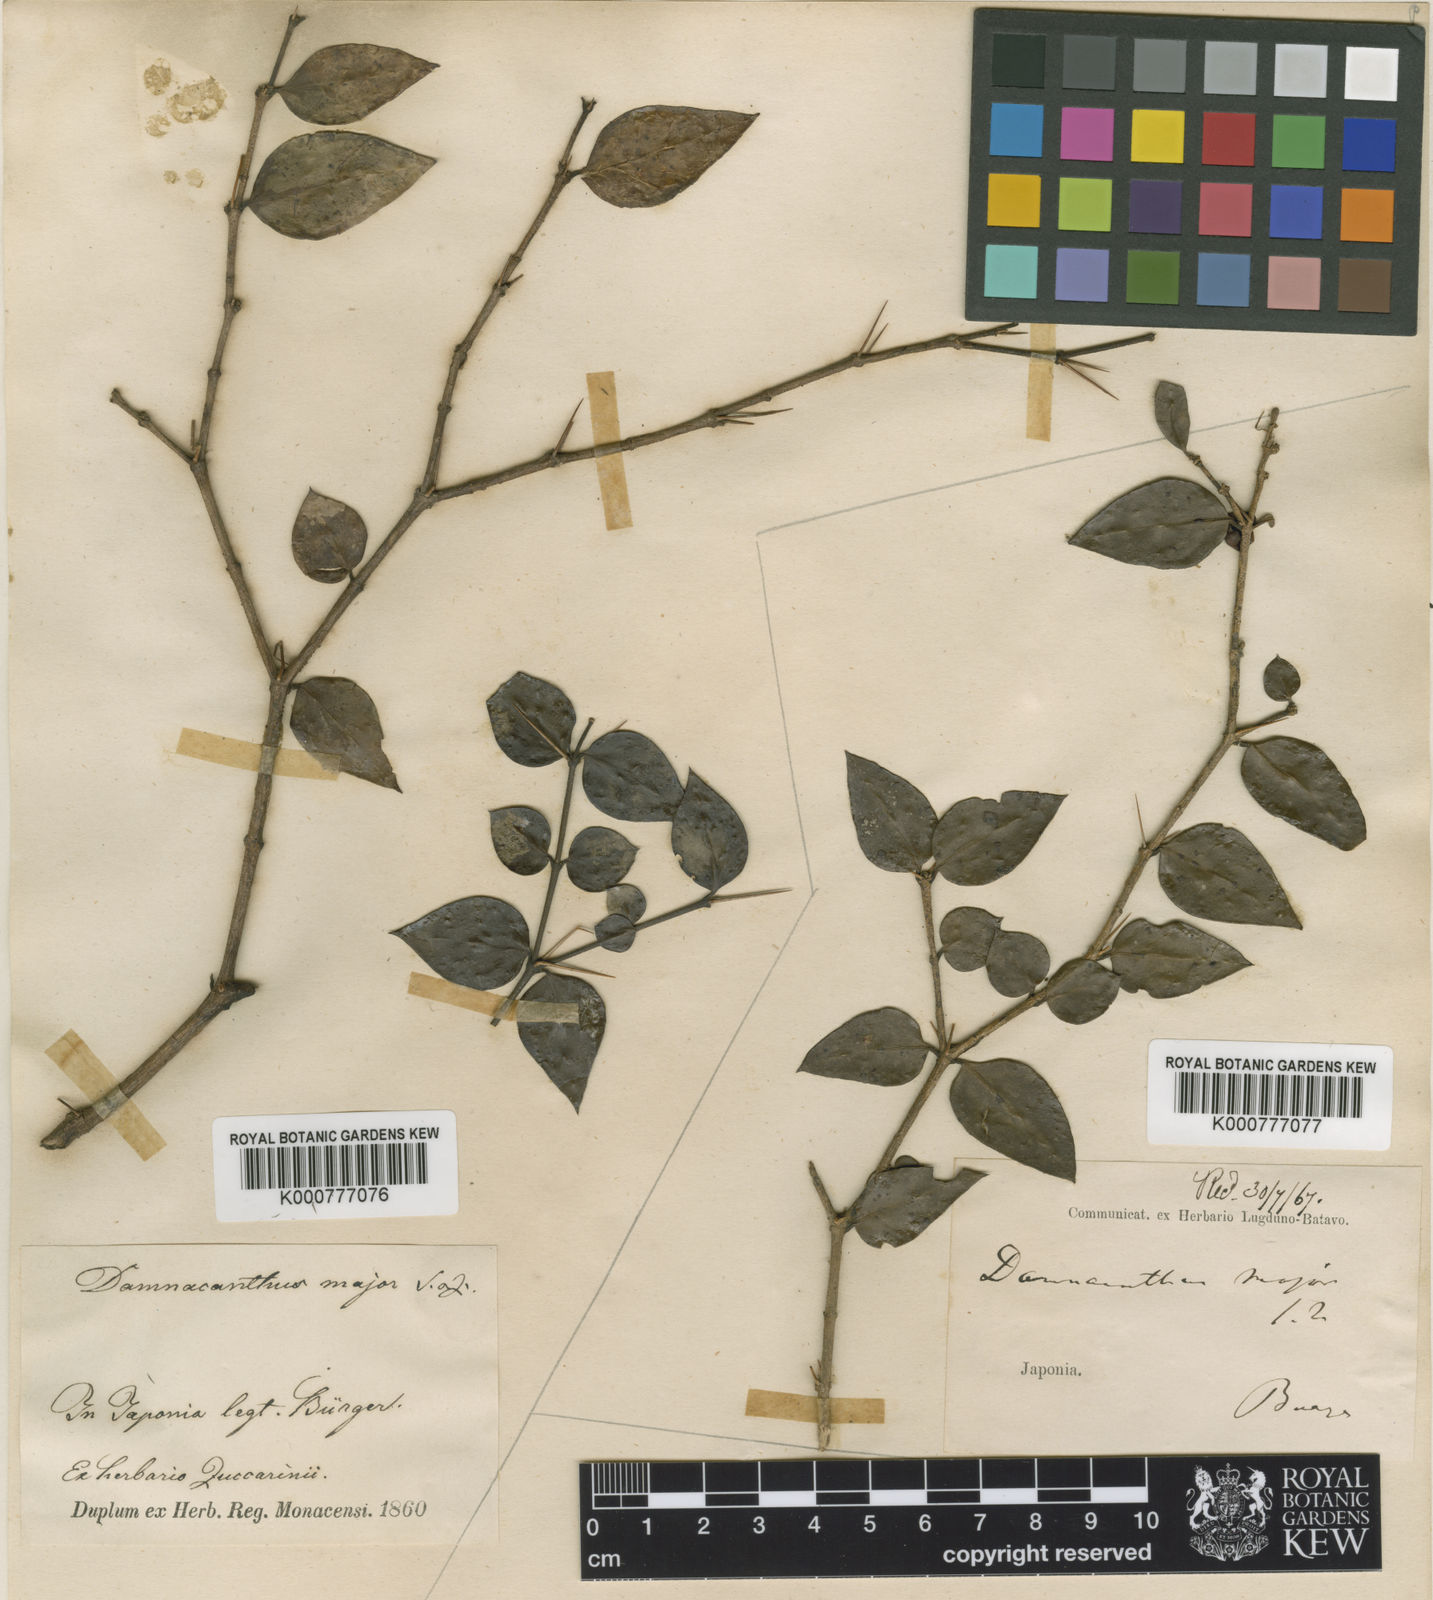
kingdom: Plantae
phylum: Tracheophyta
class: Magnoliopsida
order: Gentianales
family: Rubiaceae
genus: Damnacanthus
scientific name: Damnacanthus major
